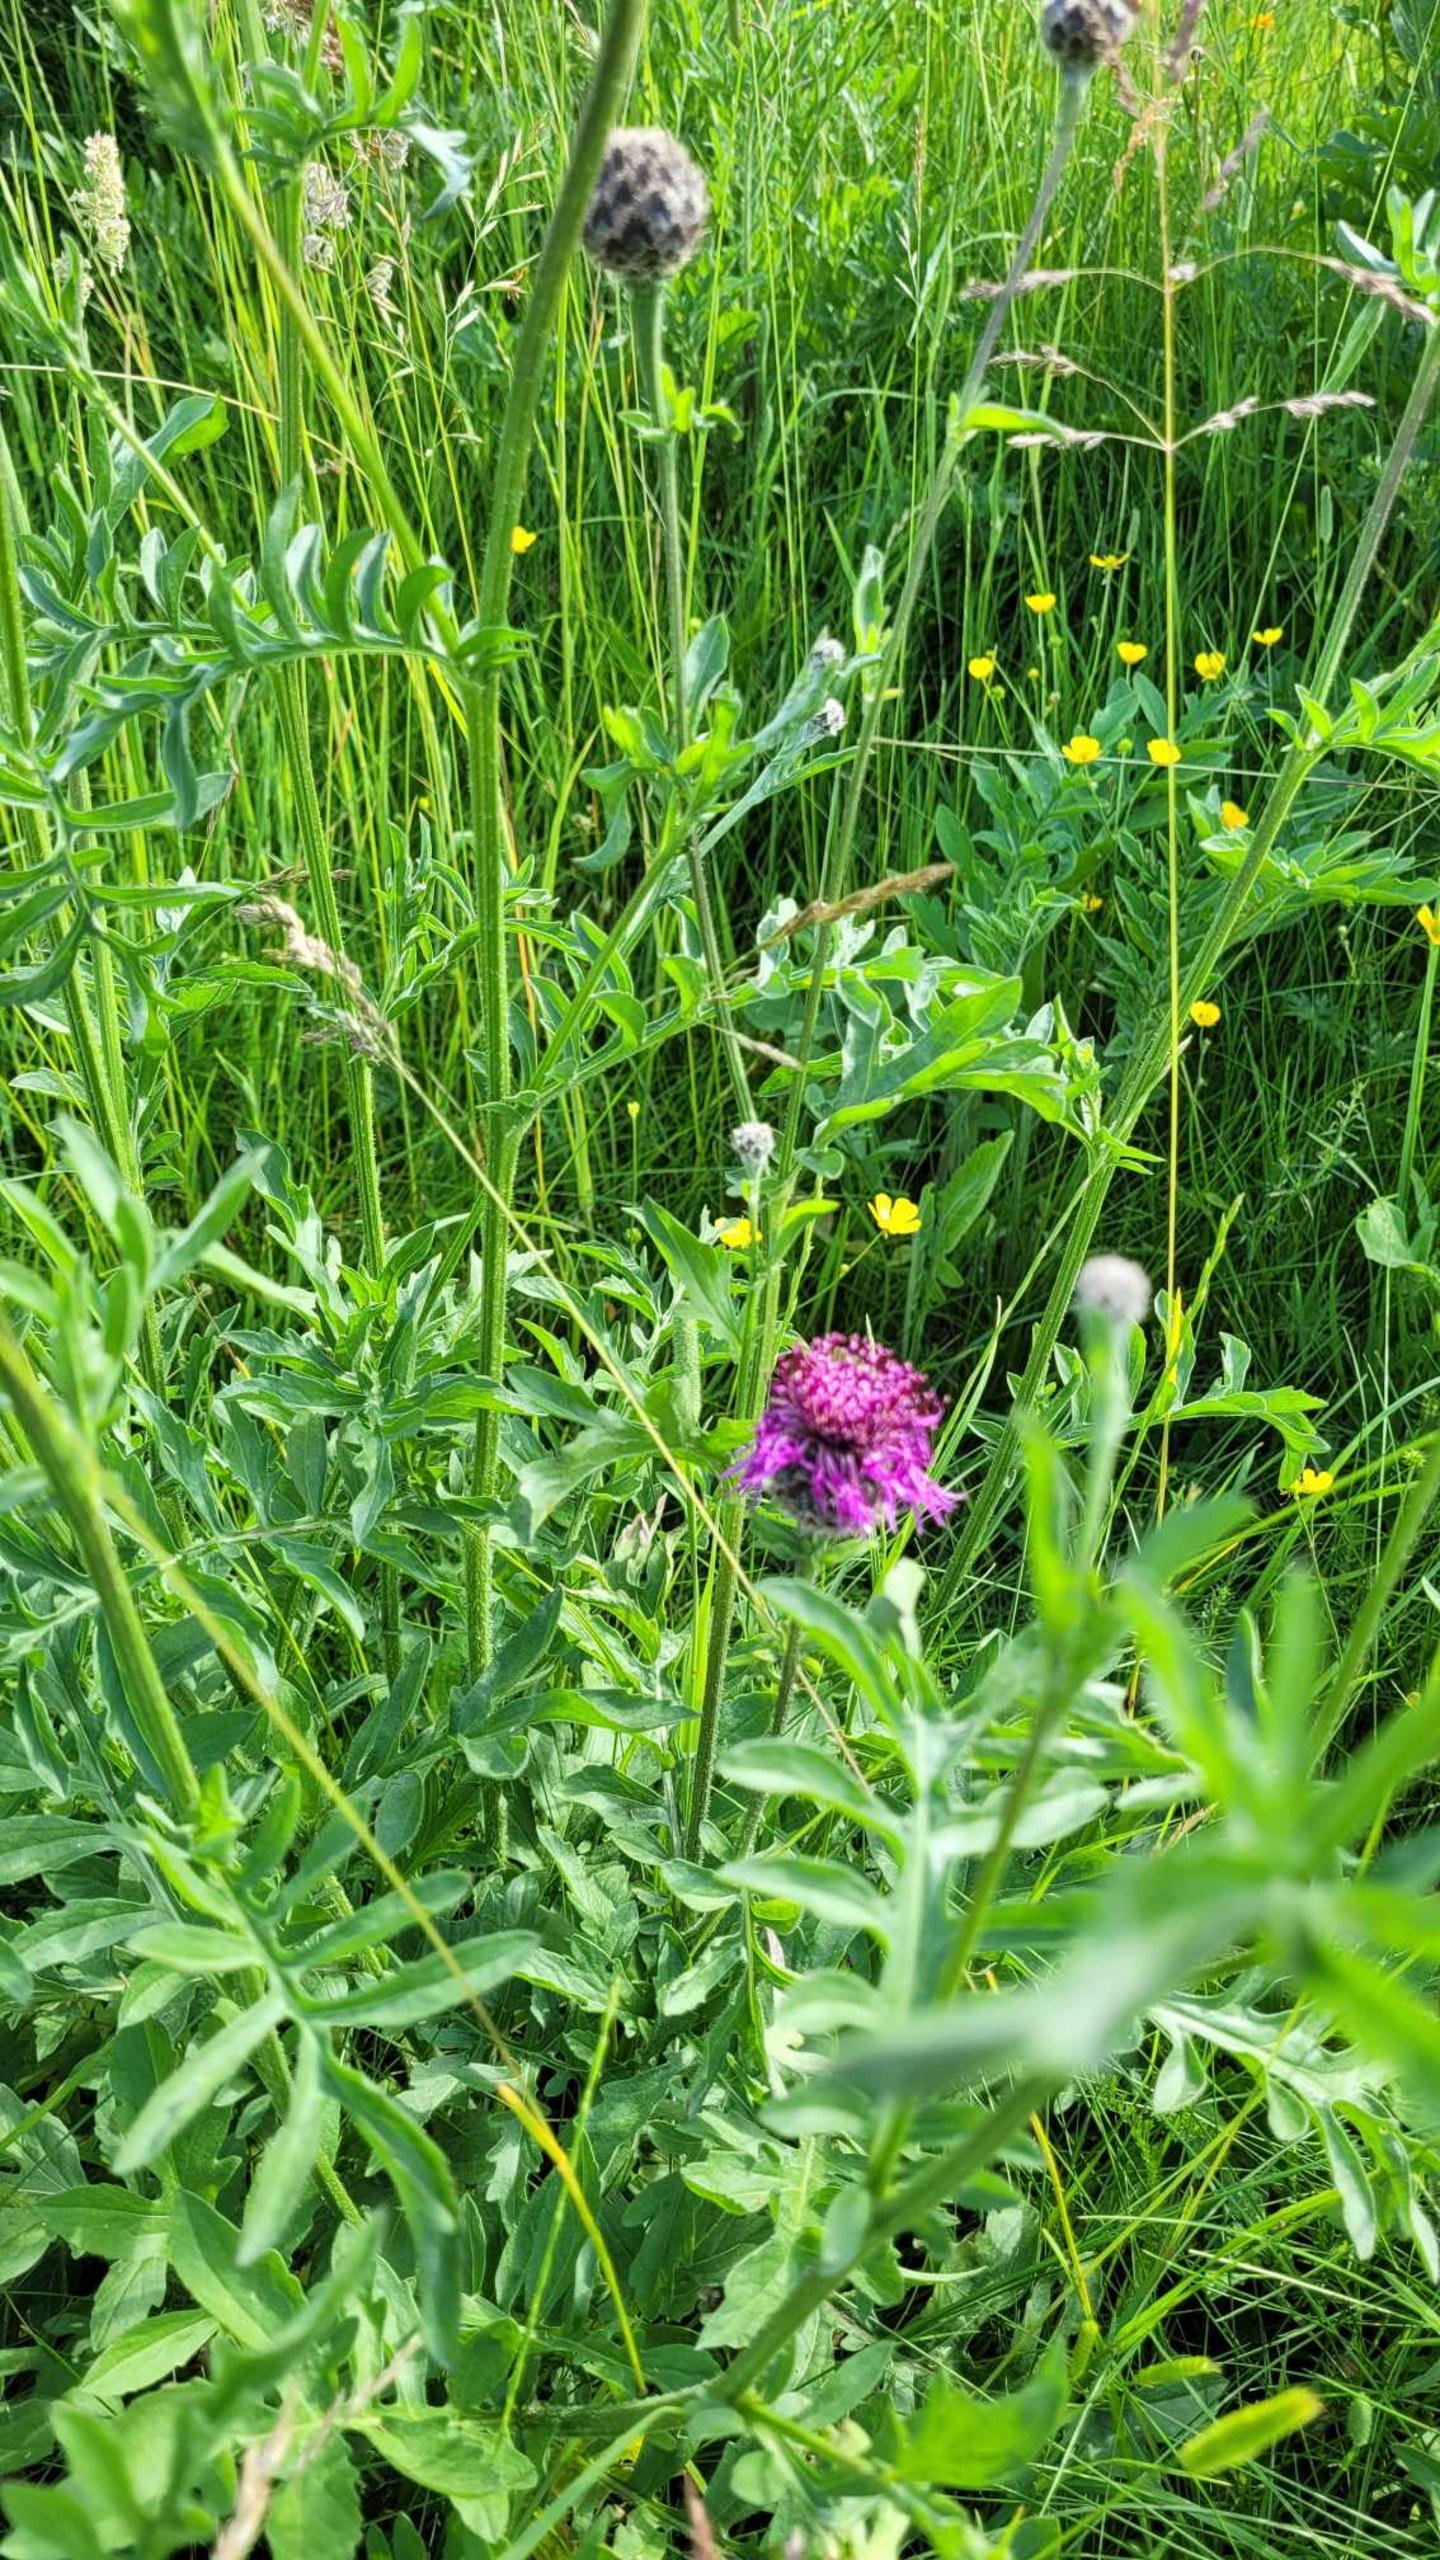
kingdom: Plantae
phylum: Tracheophyta
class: Magnoliopsida
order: Asterales
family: Asteraceae
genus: Centaurea
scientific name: Centaurea scabiosa
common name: Stor knopurt
